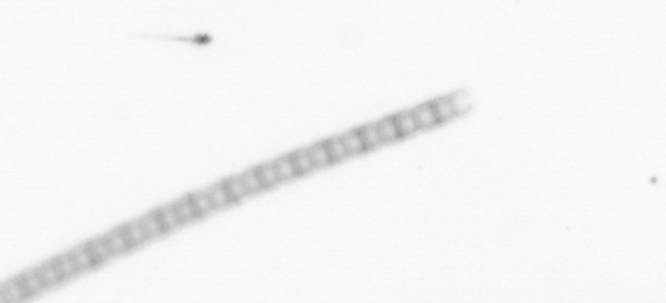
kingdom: Chromista
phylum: Ochrophyta
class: Bacillariophyceae
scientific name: Bacillariophyceae
